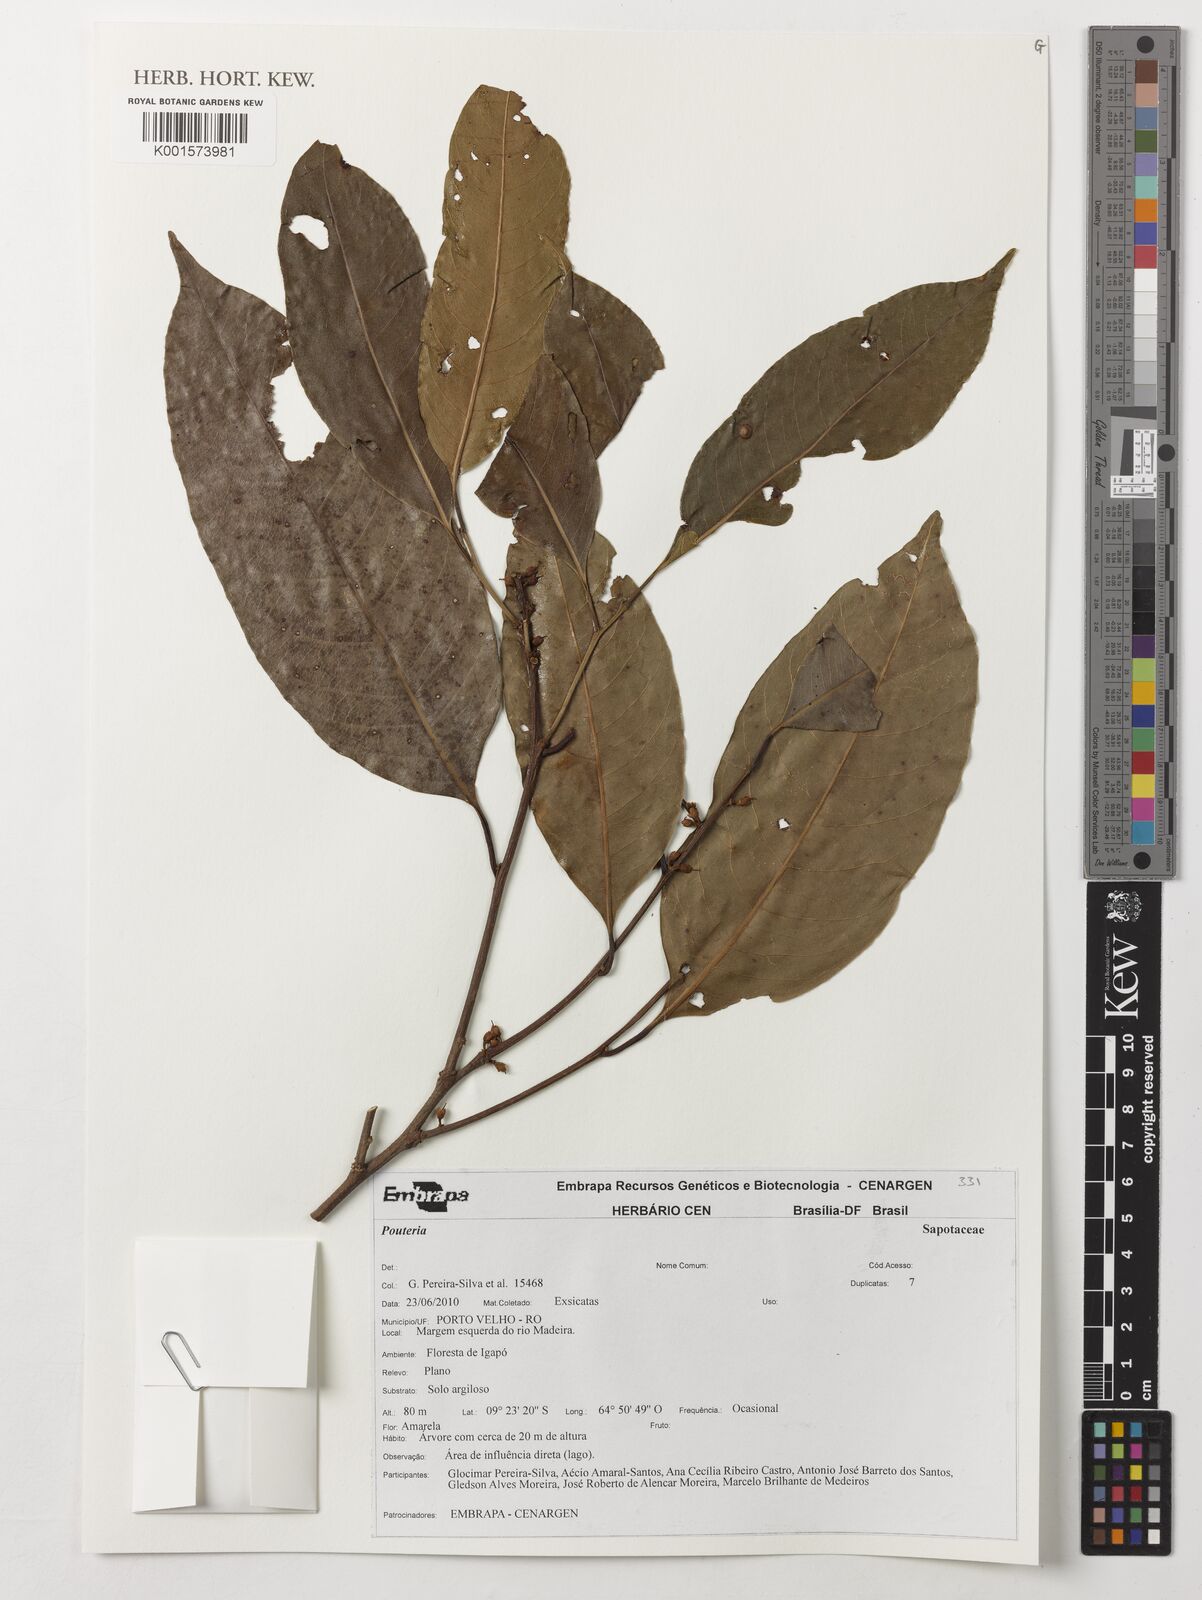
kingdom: Plantae
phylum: Tracheophyta
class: Magnoliopsida
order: Ericales
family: Sapotaceae
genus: Pouteria
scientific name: Pouteria
